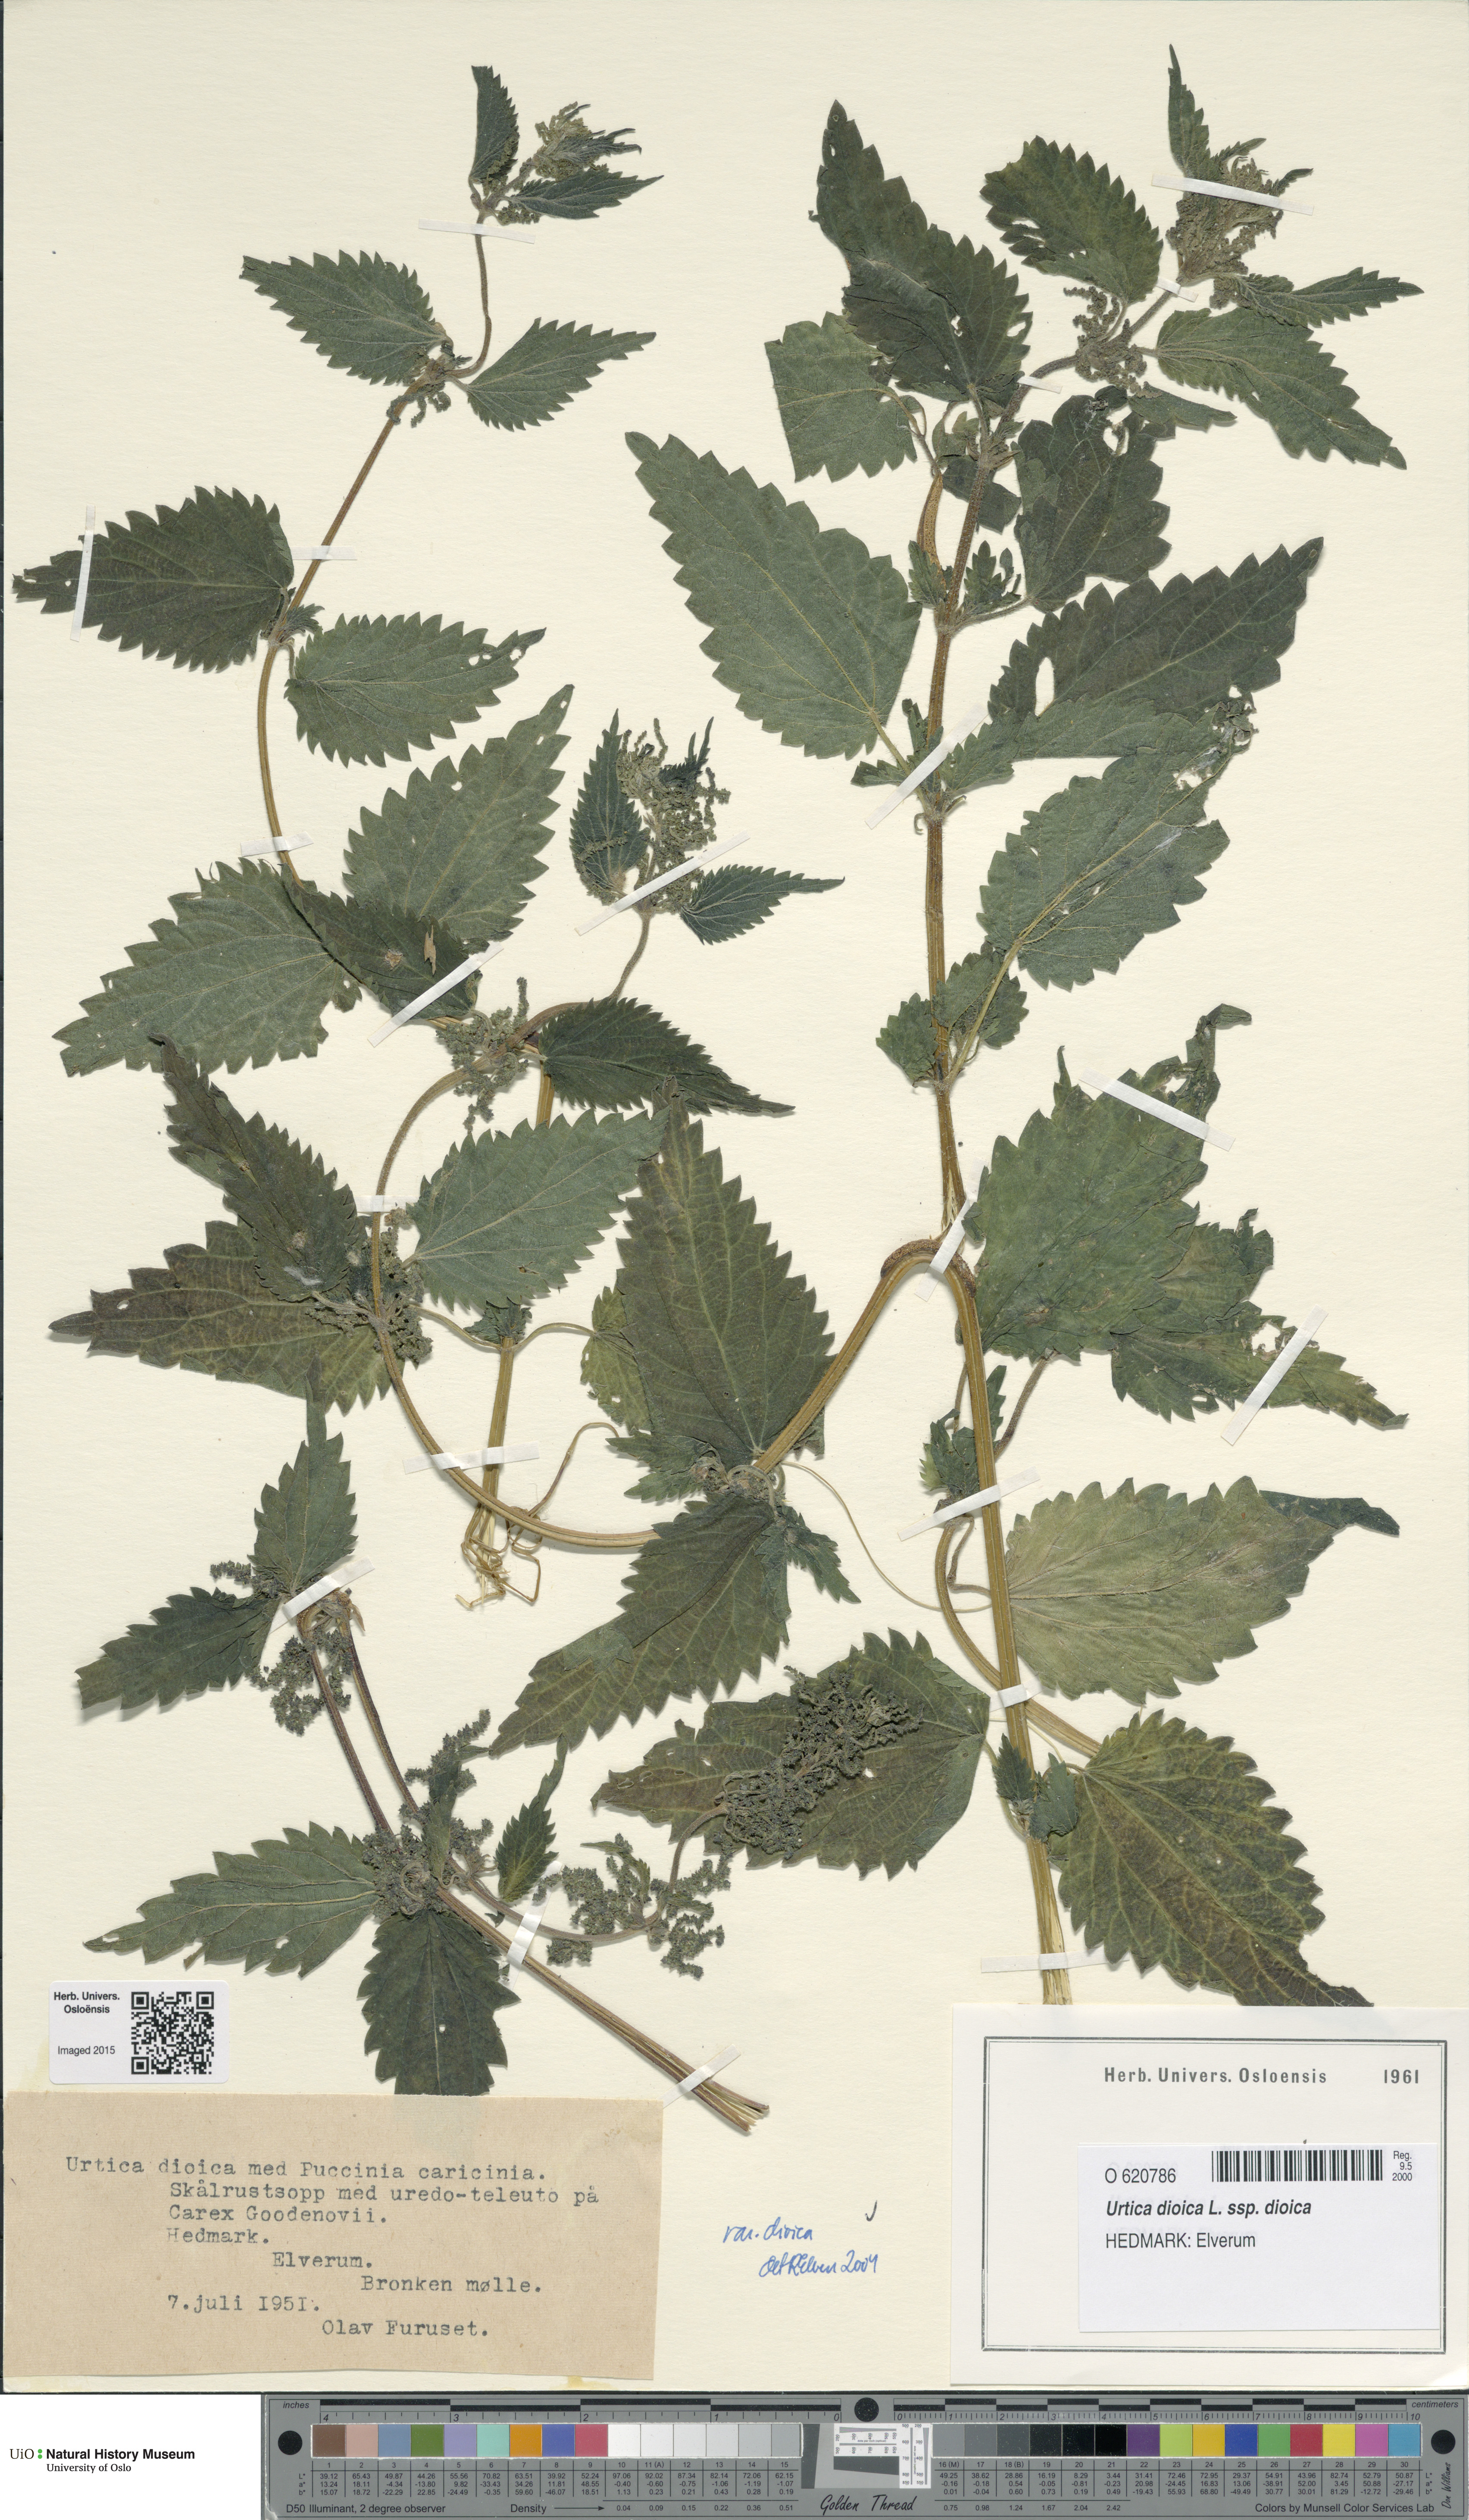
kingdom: Plantae
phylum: Tracheophyta
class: Magnoliopsida
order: Rosales
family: Urticaceae
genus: Urtica
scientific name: Urtica dioica
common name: Common nettle
